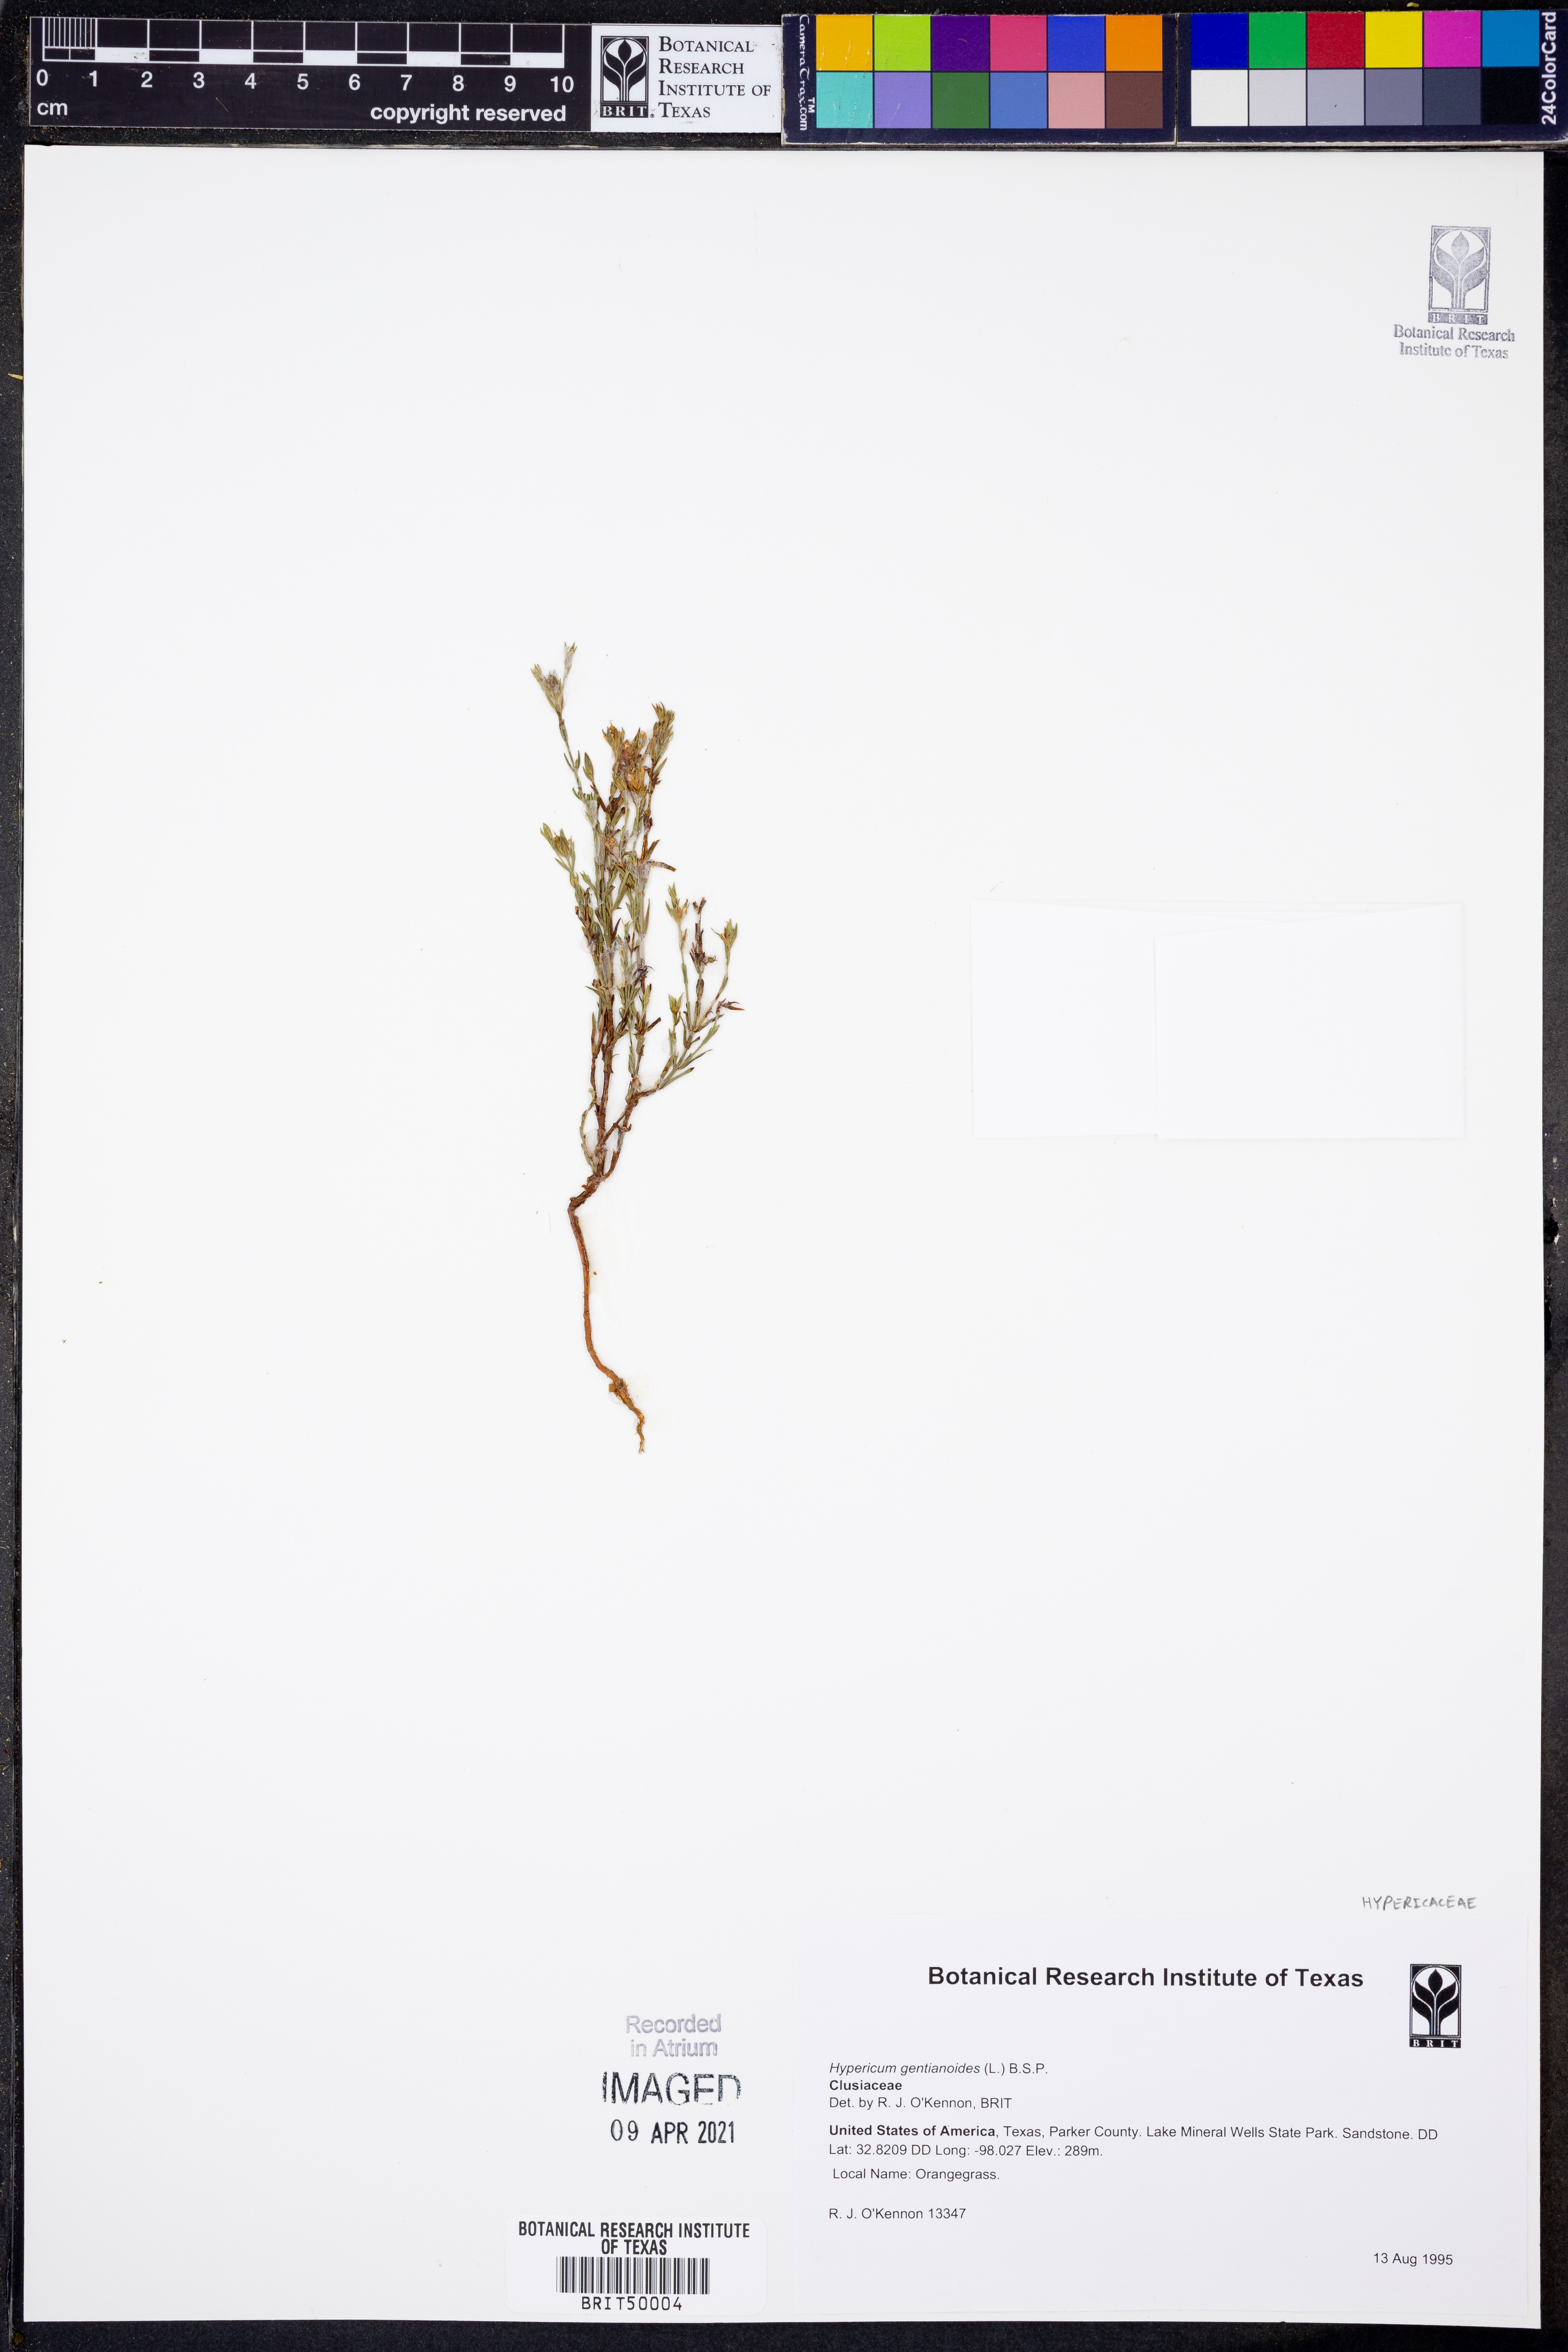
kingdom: Plantae
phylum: Tracheophyta
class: Magnoliopsida
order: Malpighiales
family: Hypericaceae
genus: Hypericum
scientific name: Hypericum gentianoides
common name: Gentian-leaved st. john's-wort
